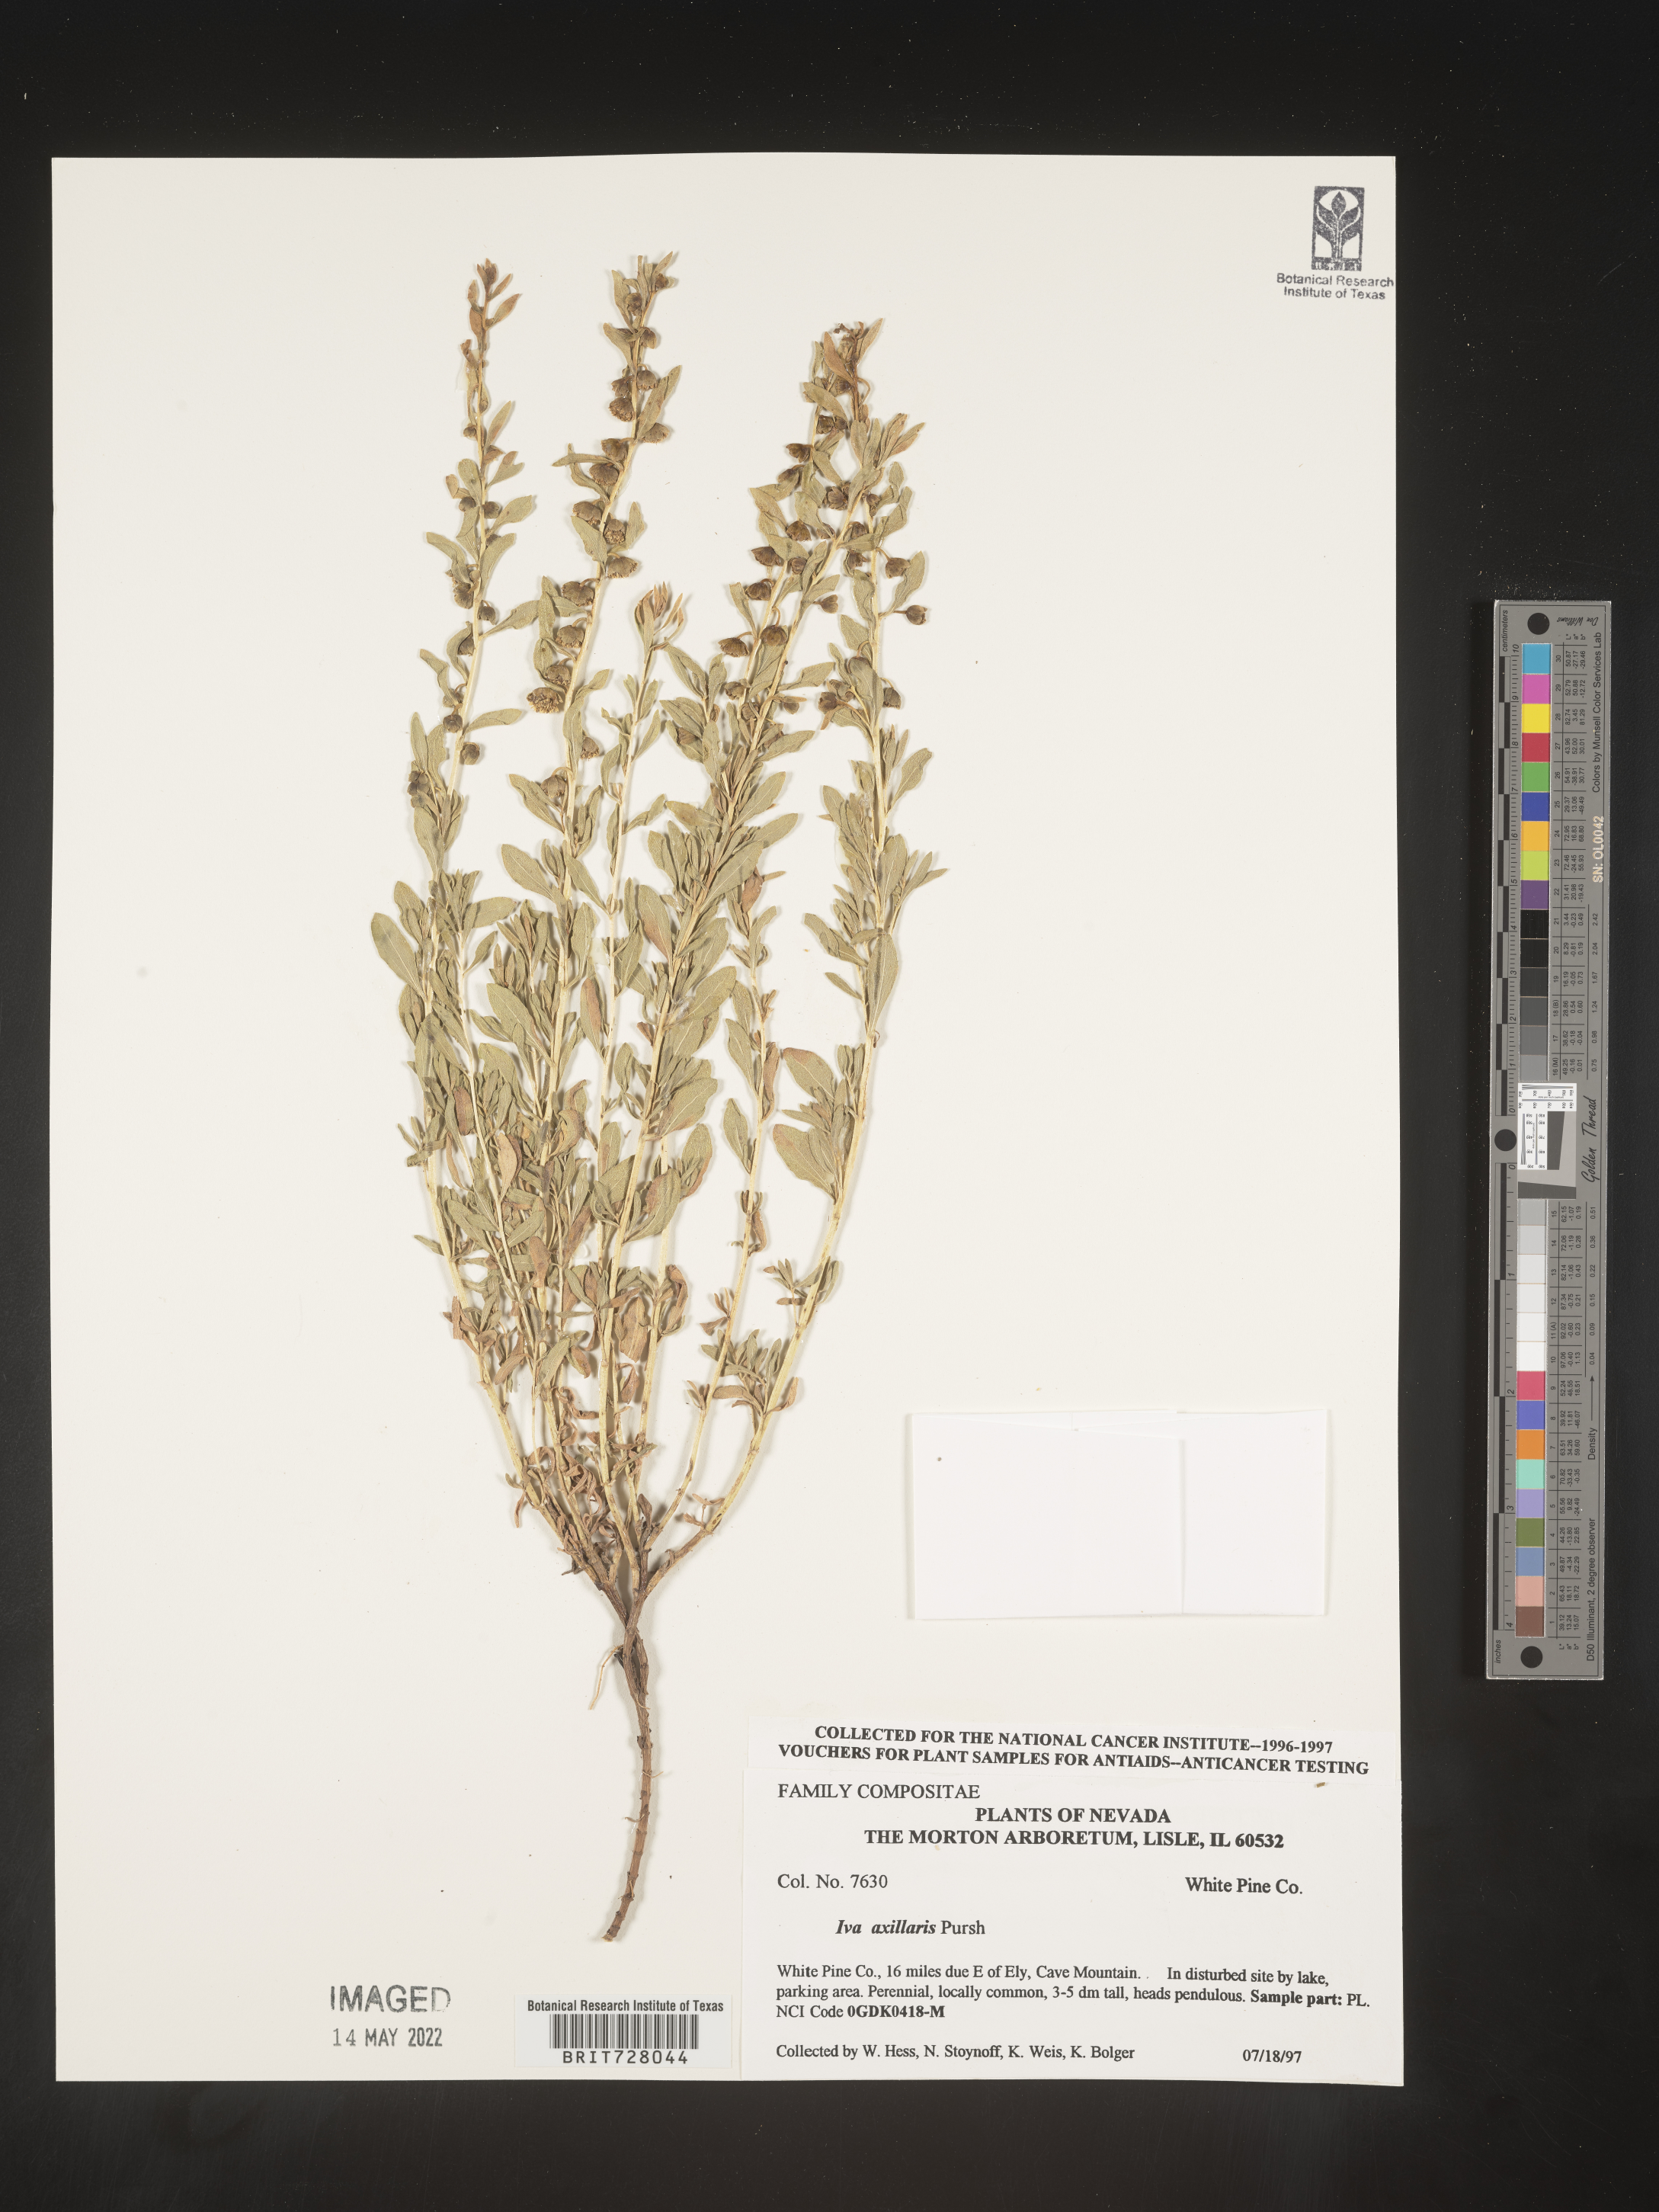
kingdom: Plantae
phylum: Tracheophyta
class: Magnoliopsida
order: Asterales
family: Asteraceae
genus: Iva
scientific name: Iva axillaris
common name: Poverty sumpweed
